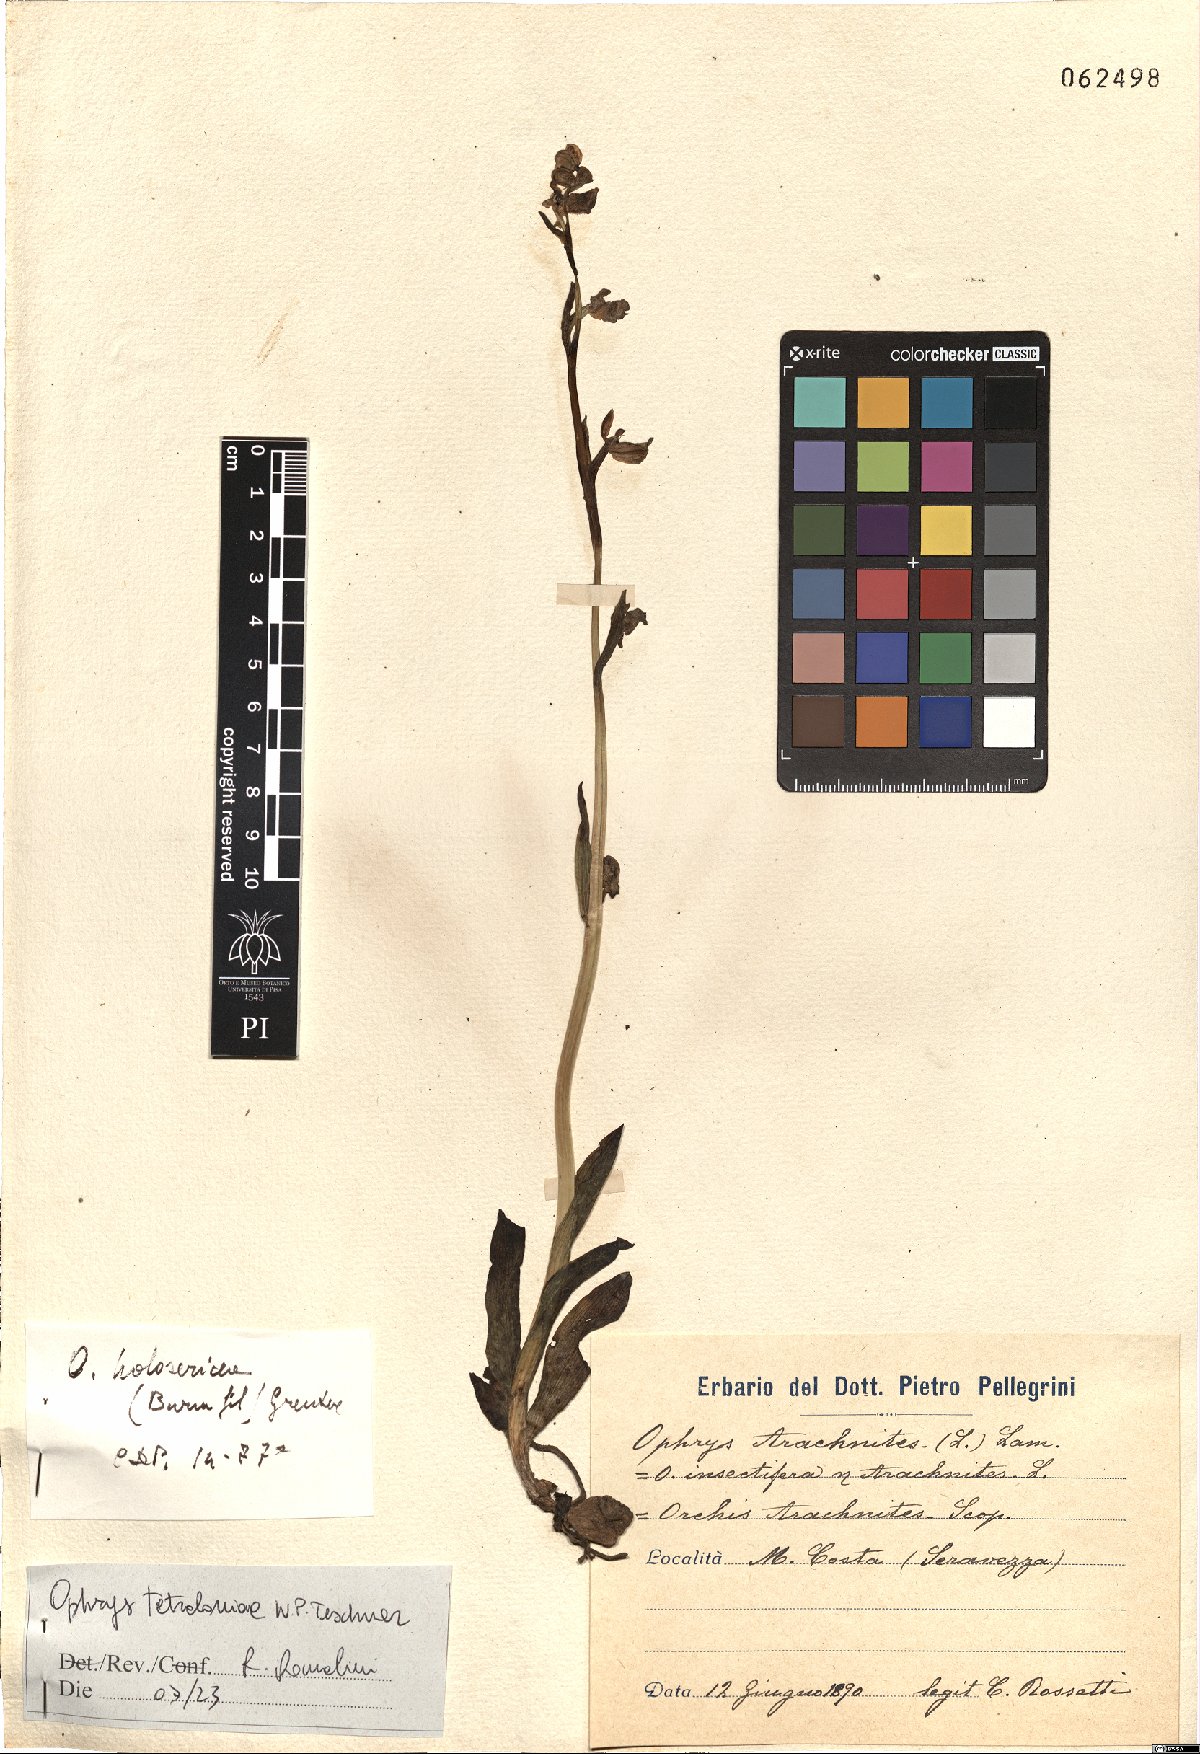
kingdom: Plantae
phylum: Tracheophyta
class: Liliopsida
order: Asparagales
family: Orchidaceae
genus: Ophrys
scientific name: Ophrys holosericea
